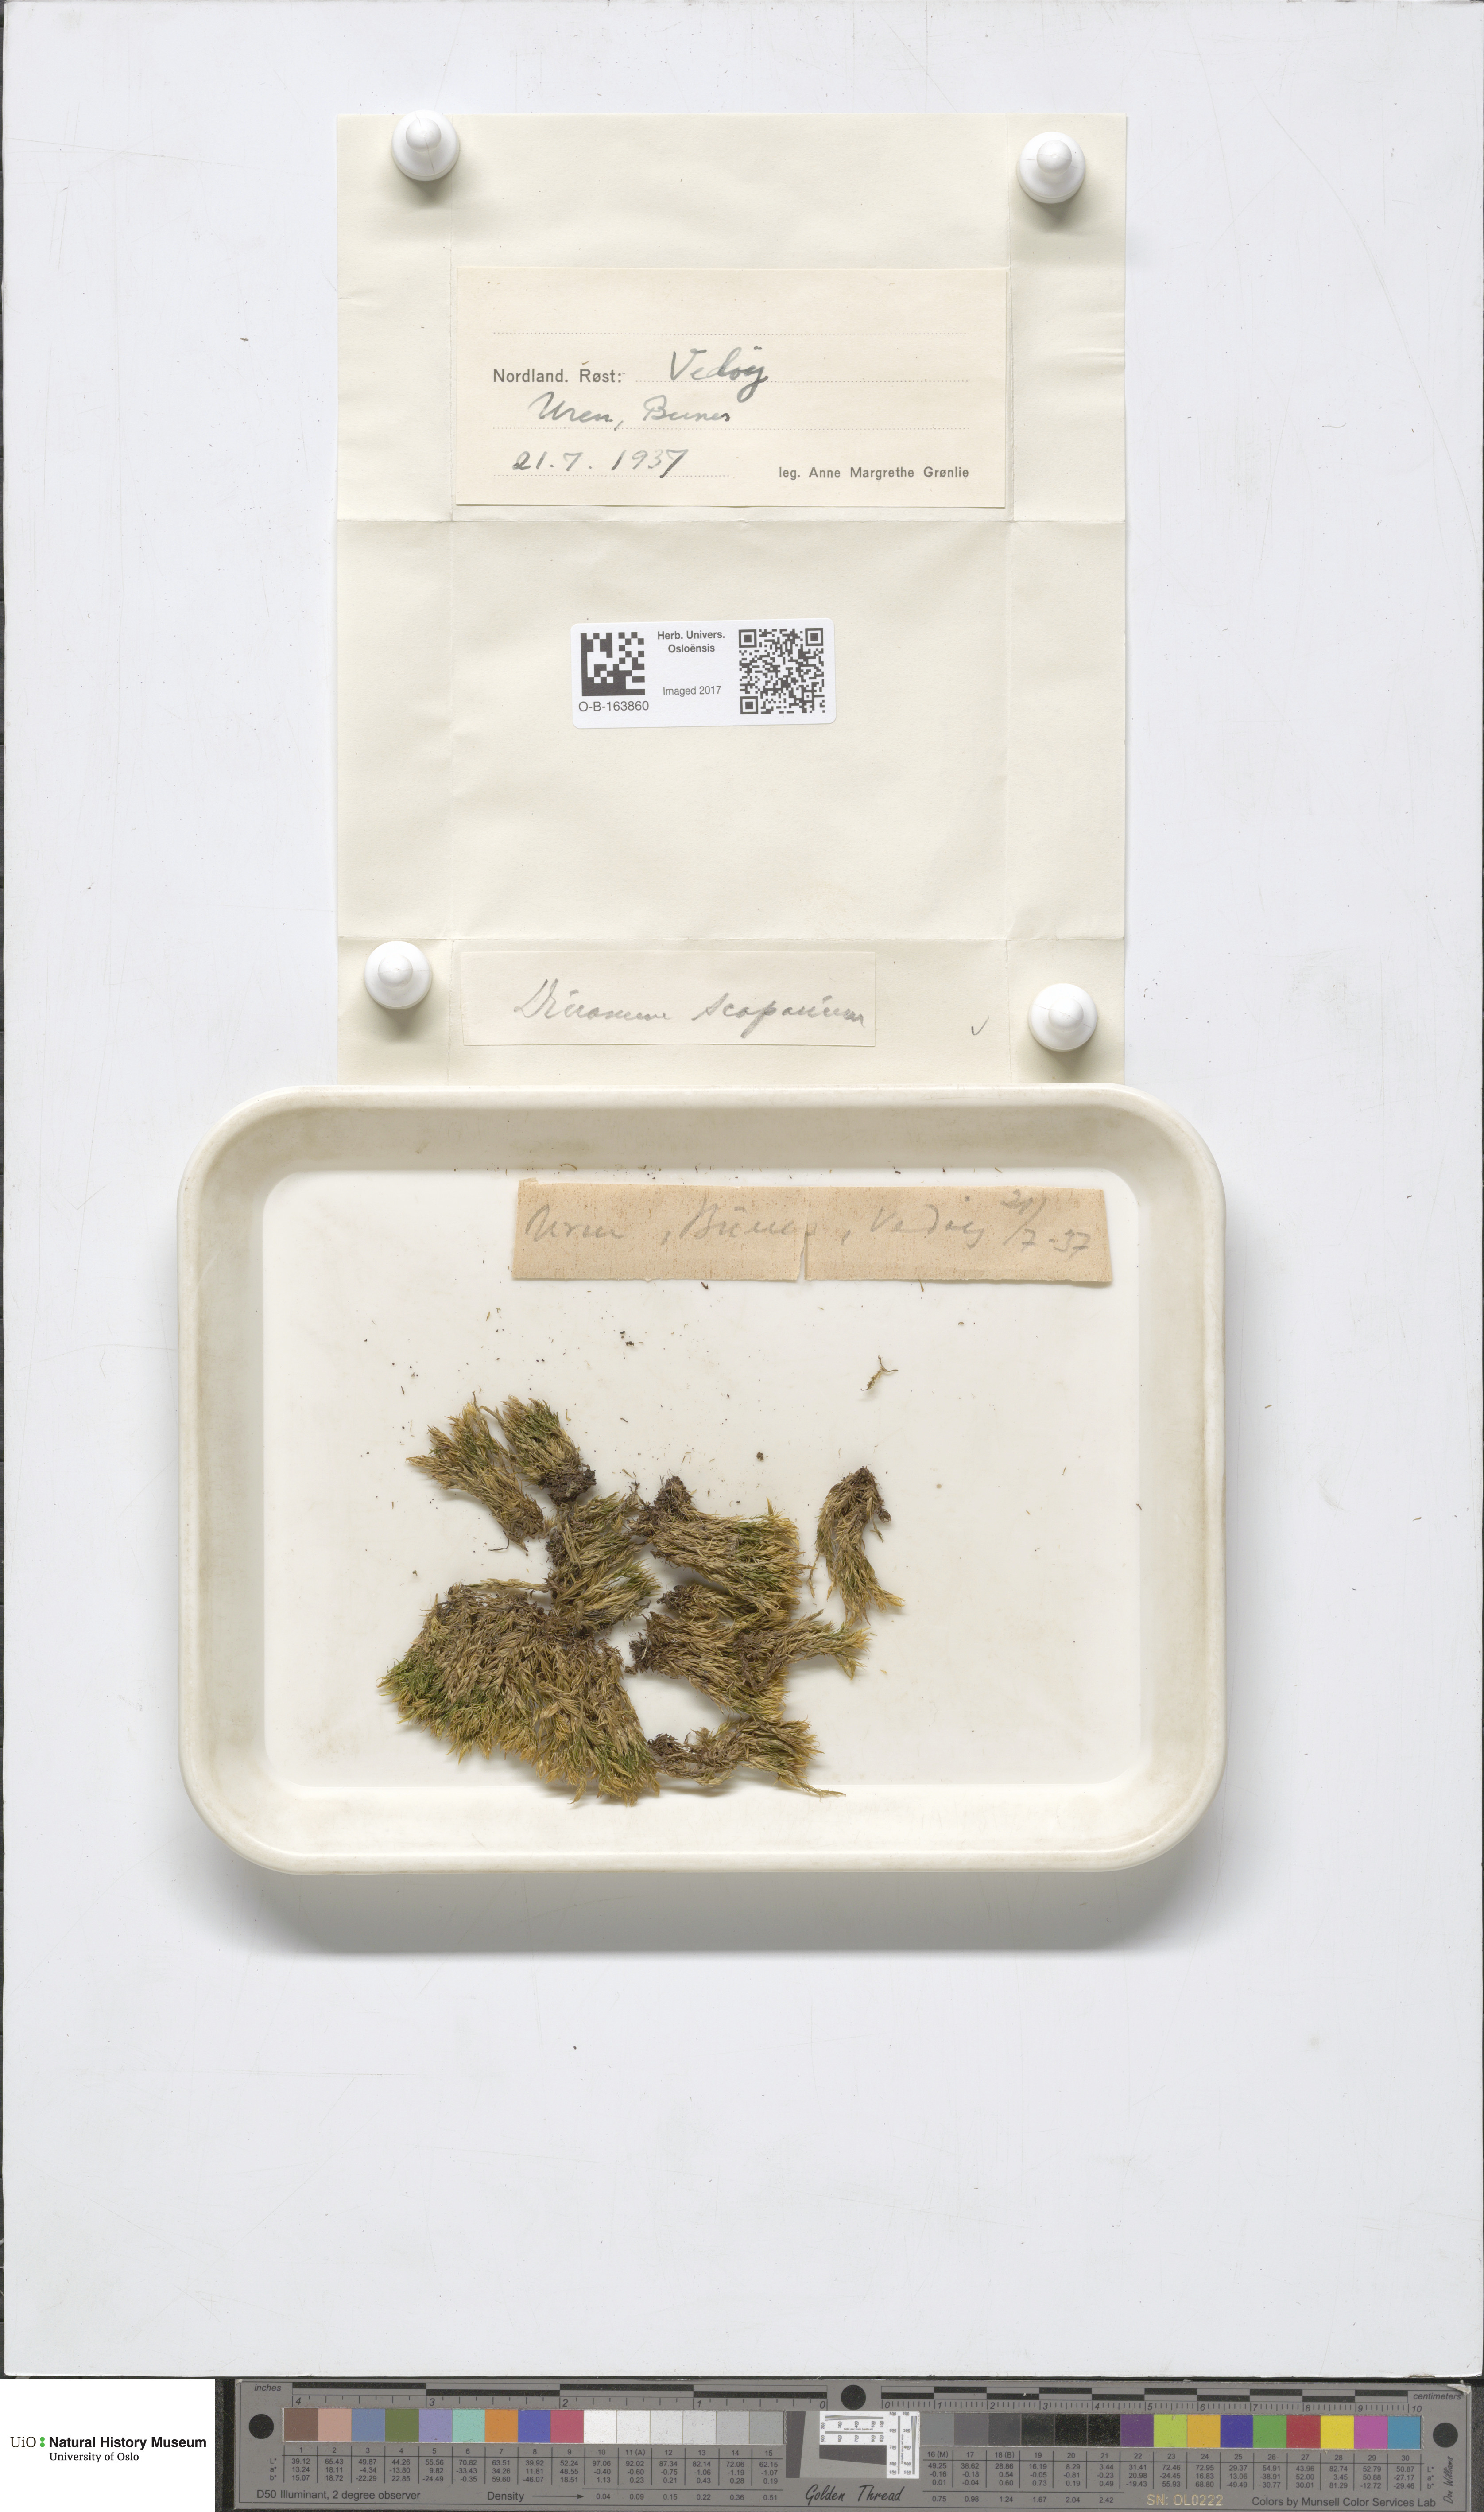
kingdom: Plantae
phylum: Bryophyta
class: Bryopsida
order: Dicranales
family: Dicranaceae
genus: Dicranum
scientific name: Dicranum scoparium
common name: Broom fork-moss
